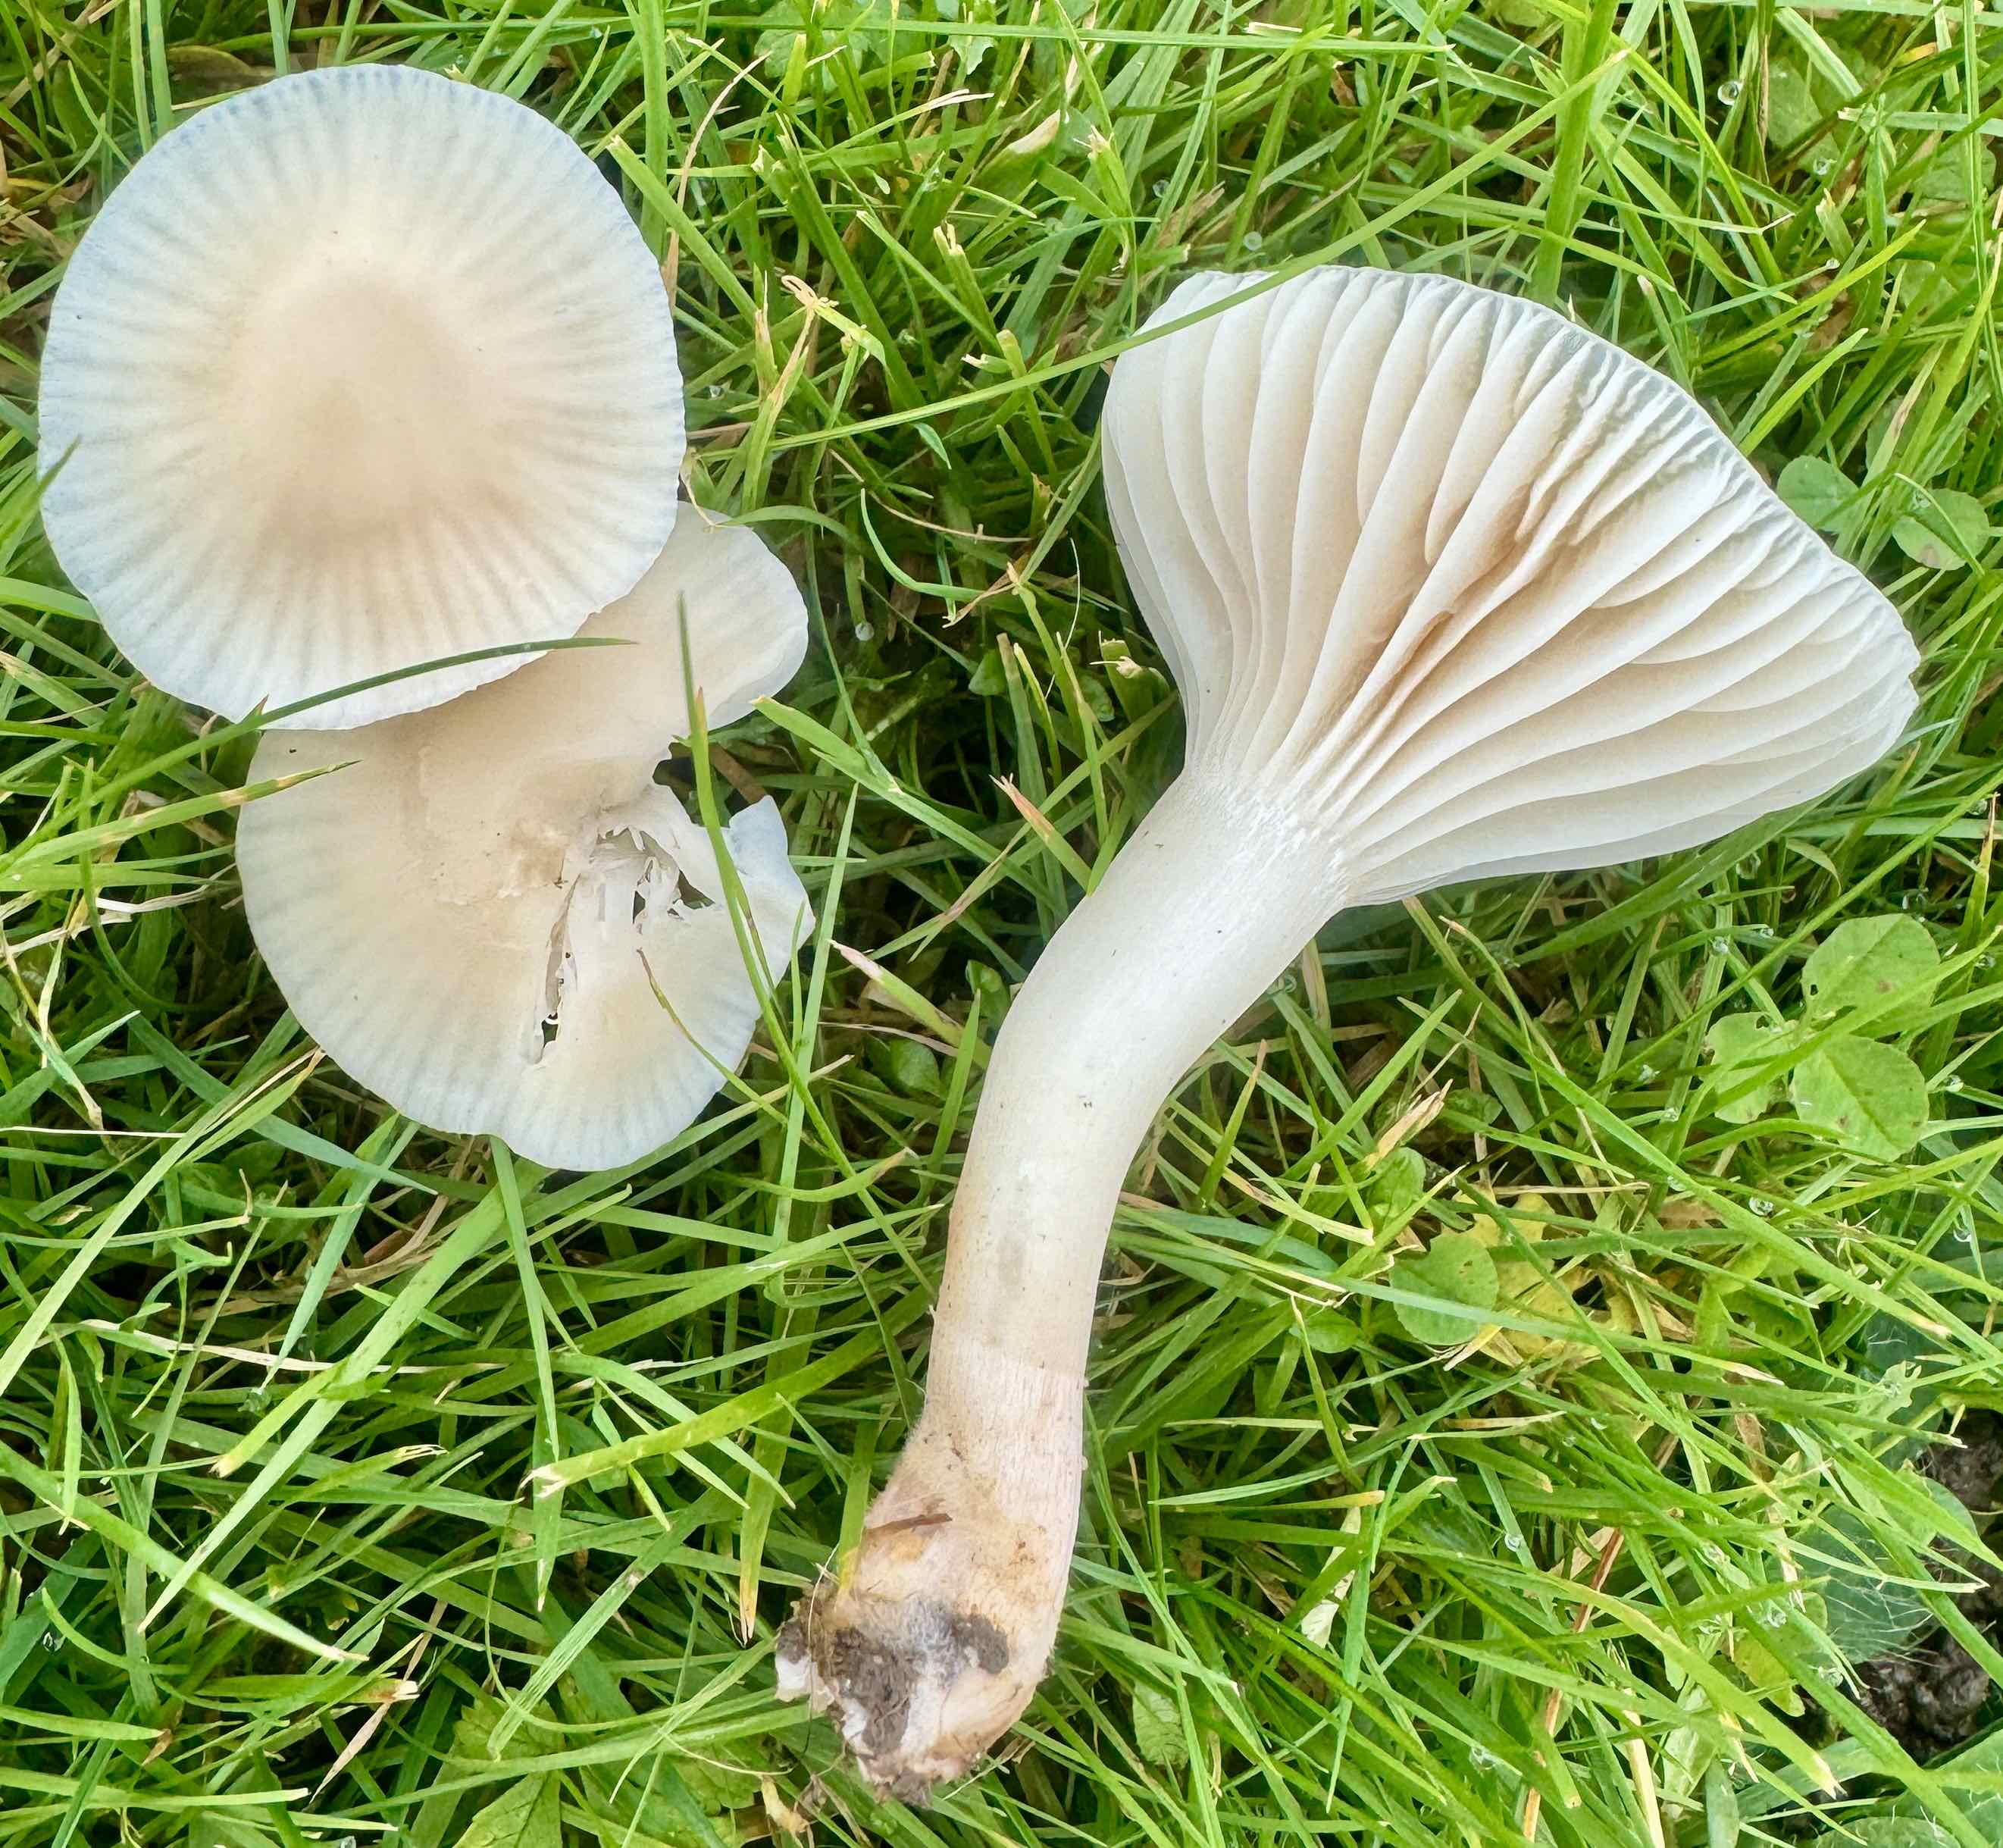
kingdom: Fungi
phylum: Basidiomycota
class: Agaricomycetes
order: Agaricales
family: Hygrophoraceae
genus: Cuphophyllus
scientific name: Cuphophyllus virgineus
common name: snehvid vokshat
